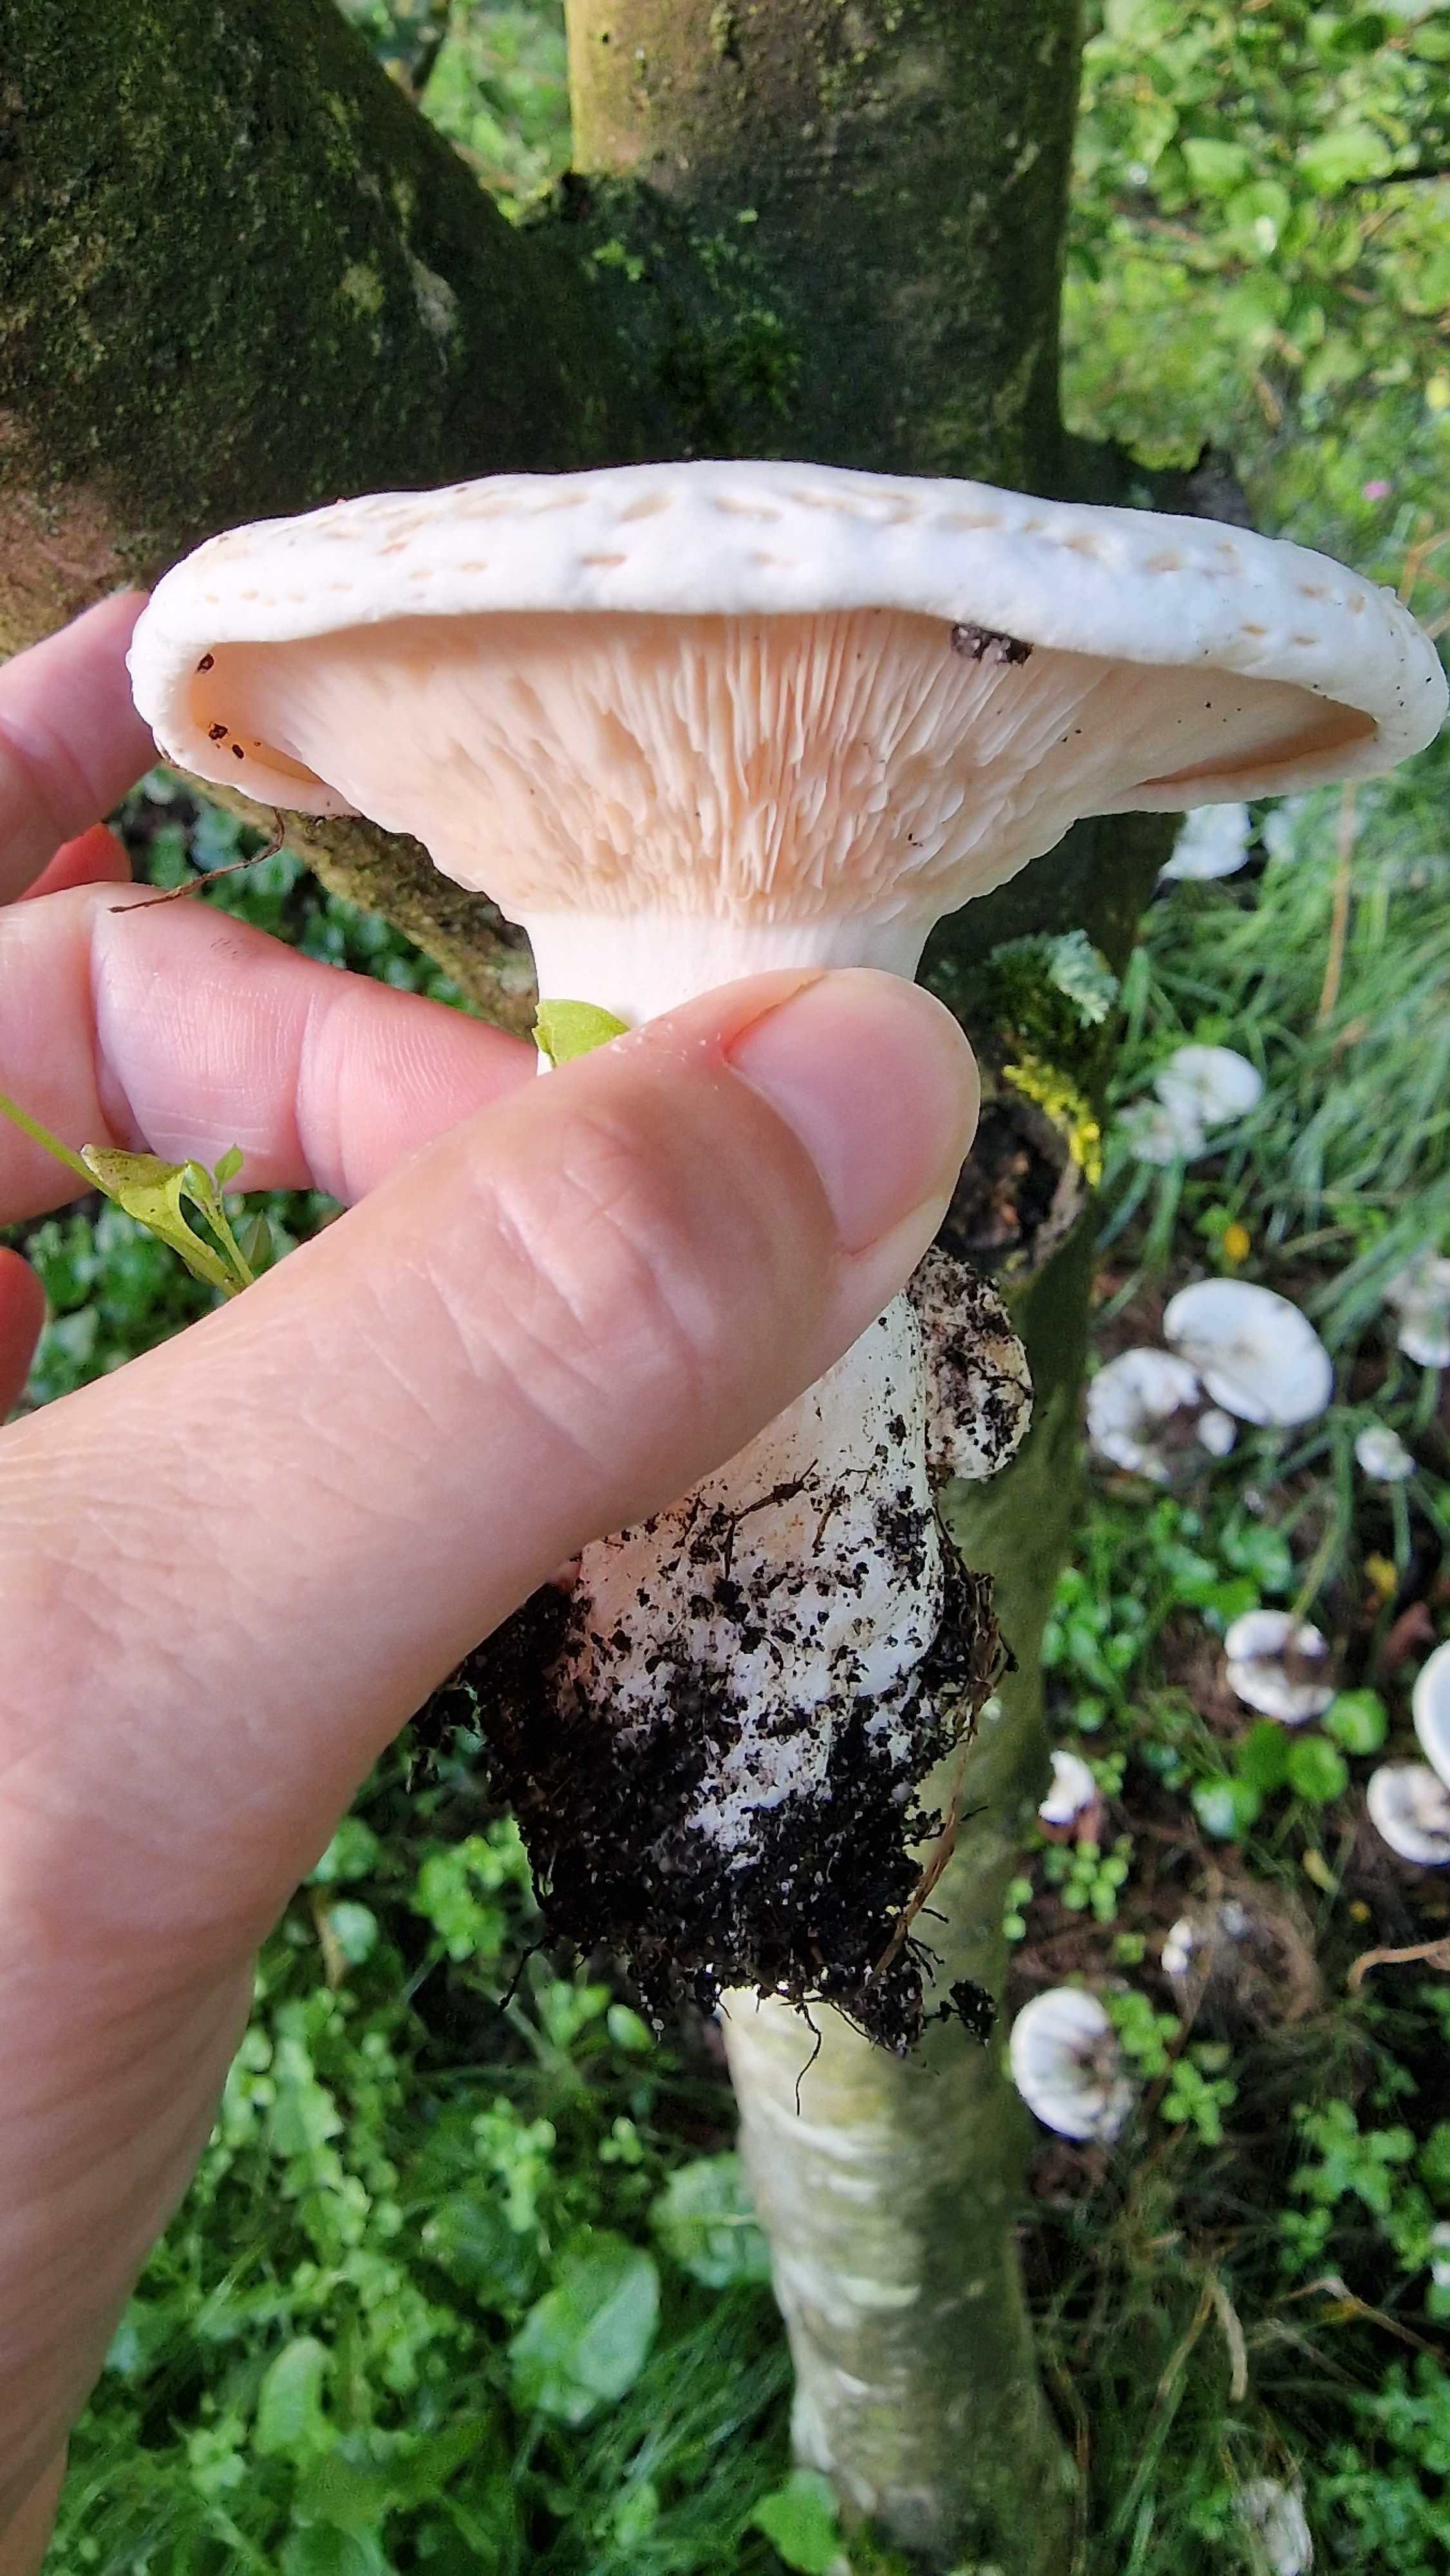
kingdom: Fungi
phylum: Basidiomycota
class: Agaricomycetes
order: Agaricales
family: Tricholomataceae
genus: Aspropaxillus
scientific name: Aspropaxillus giganteus
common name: kæmpe-tragtridderhat
